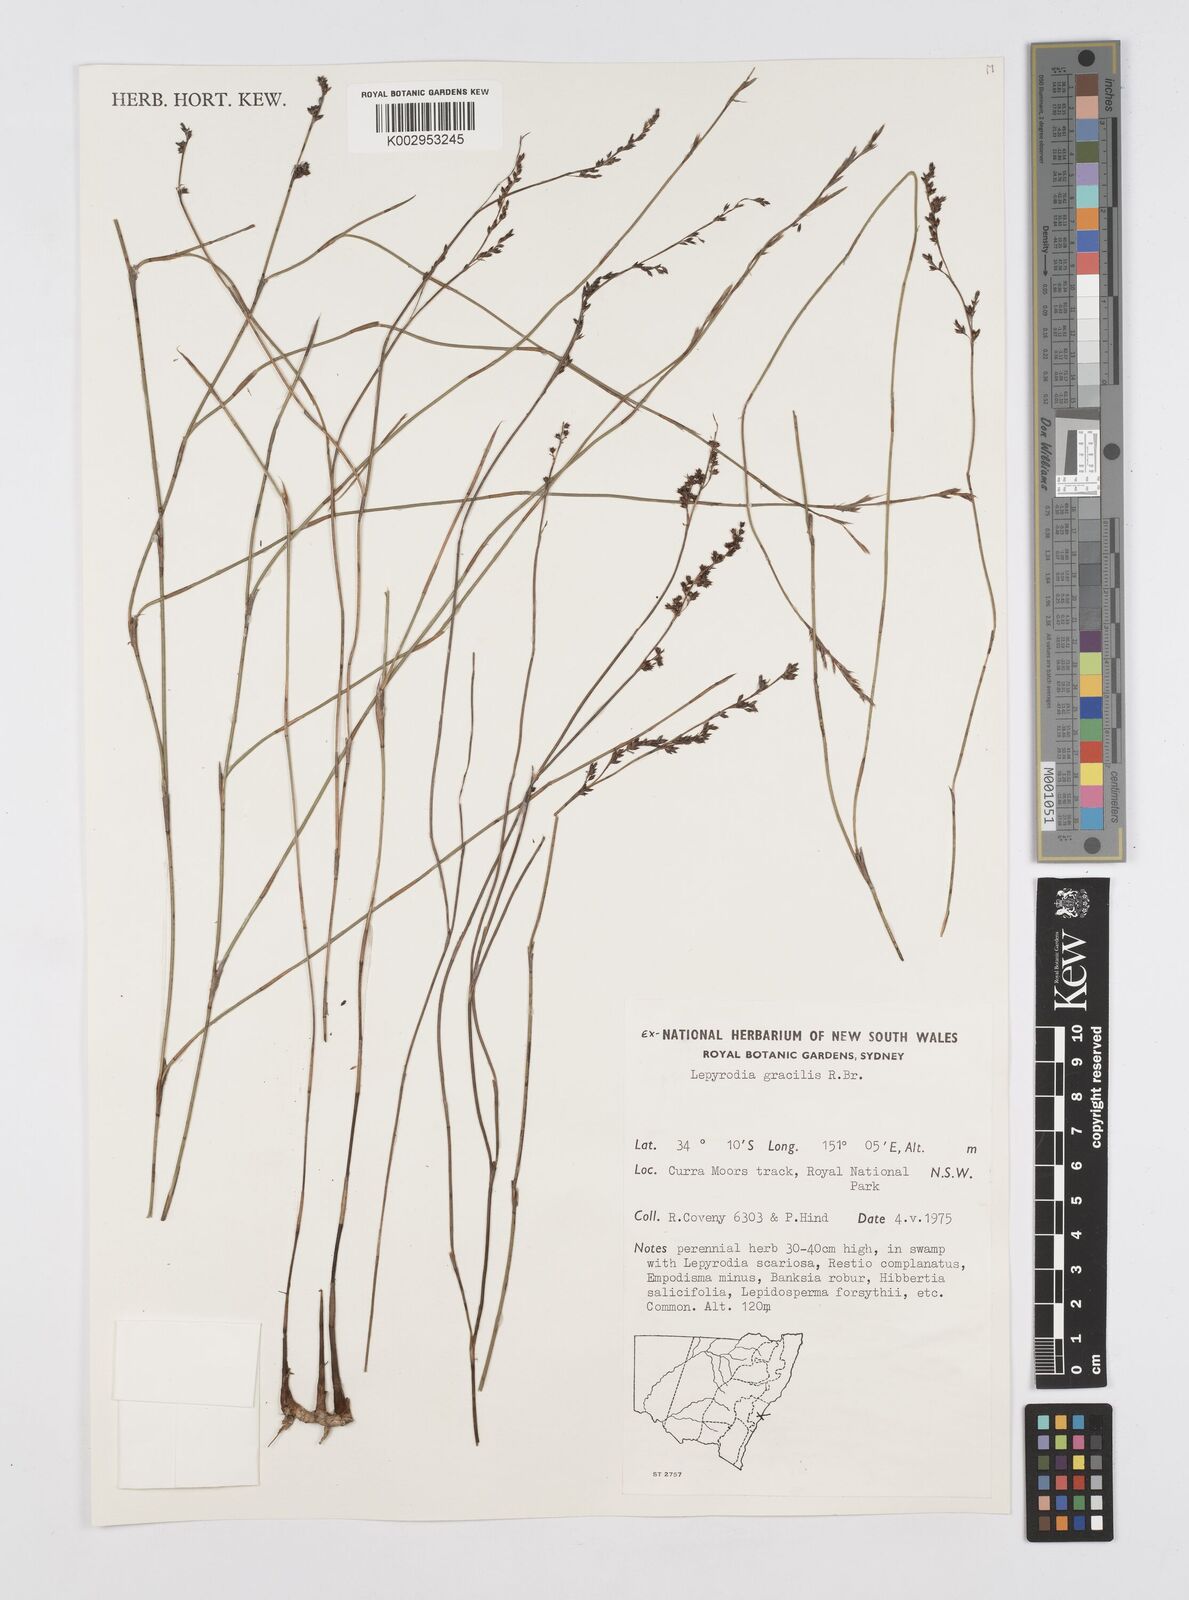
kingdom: Plantae
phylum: Tracheophyta
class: Liliopsida
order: Poales
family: Restionaceae
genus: Sporadanthus
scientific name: Sporadanthus gracilis
